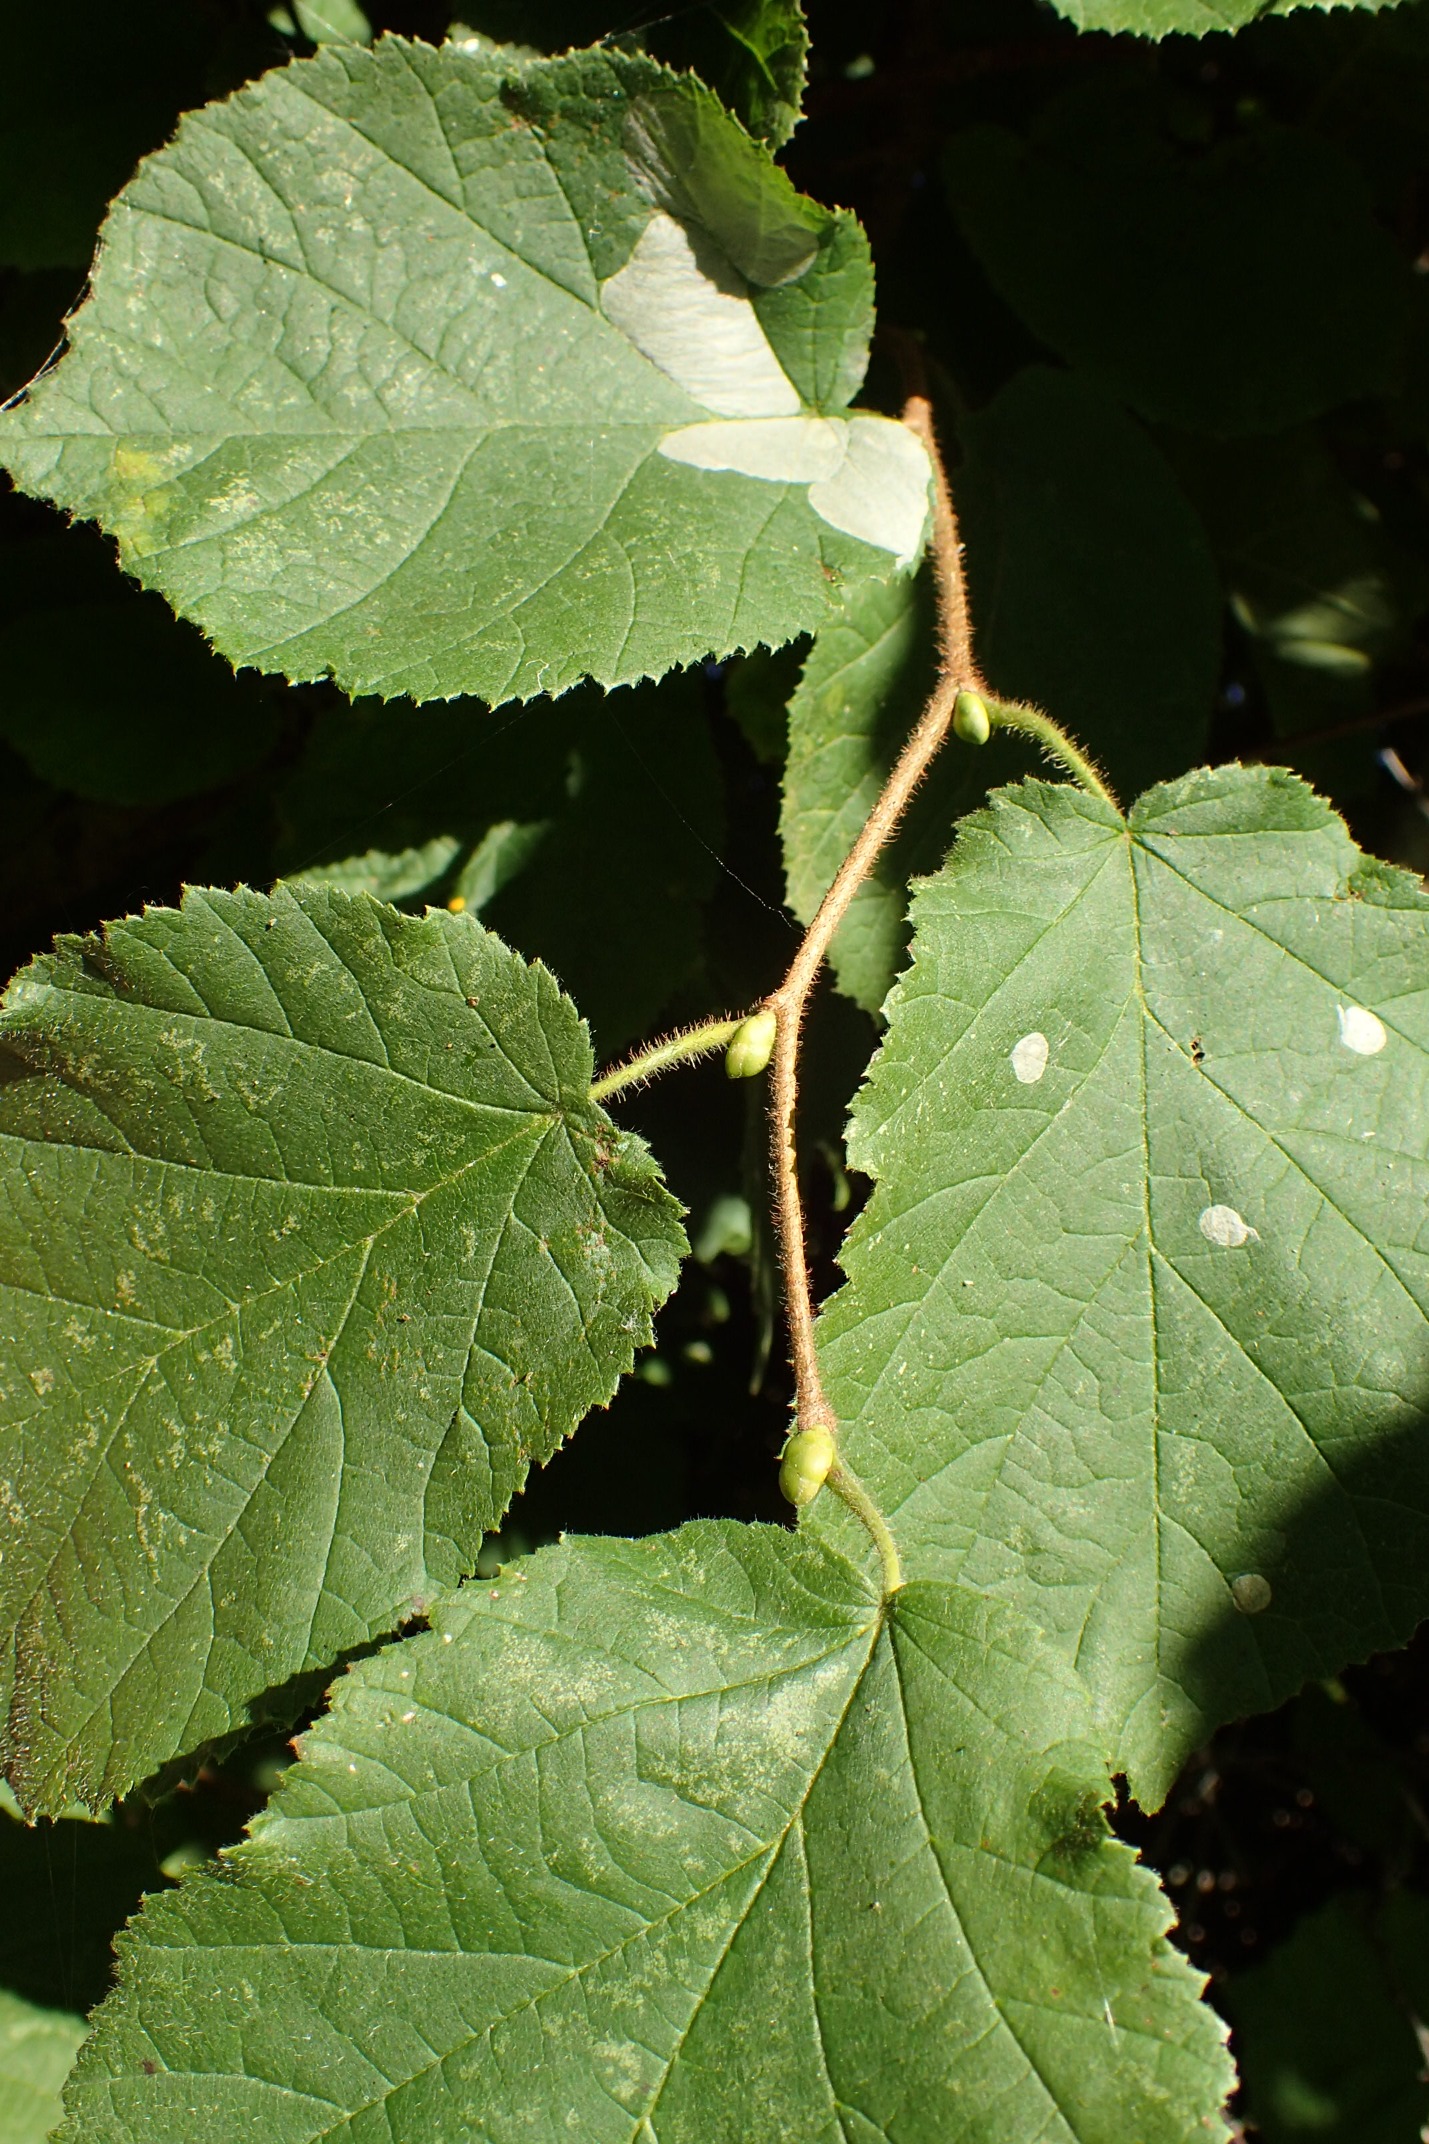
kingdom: Animalia
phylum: Arthropoda
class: Insecta
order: Lepidoptera
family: Gracillariidae
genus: Phyllonorycter
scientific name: Phyllonorycter coryli
